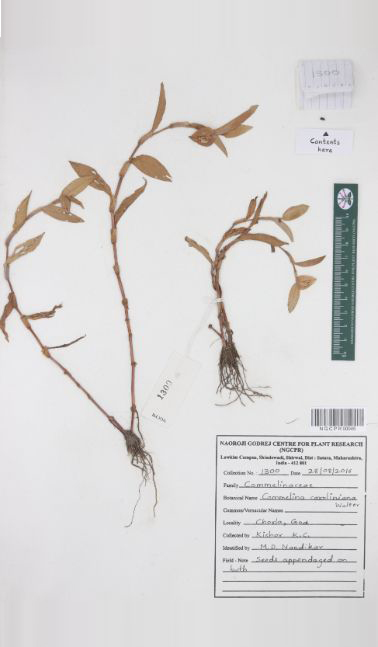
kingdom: Plantae
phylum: Tracheophyta
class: Liliopsida
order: Commelinales
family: Commelinaceae
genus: Commelina
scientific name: Commelina caroliniana
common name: Carolina dayflower
